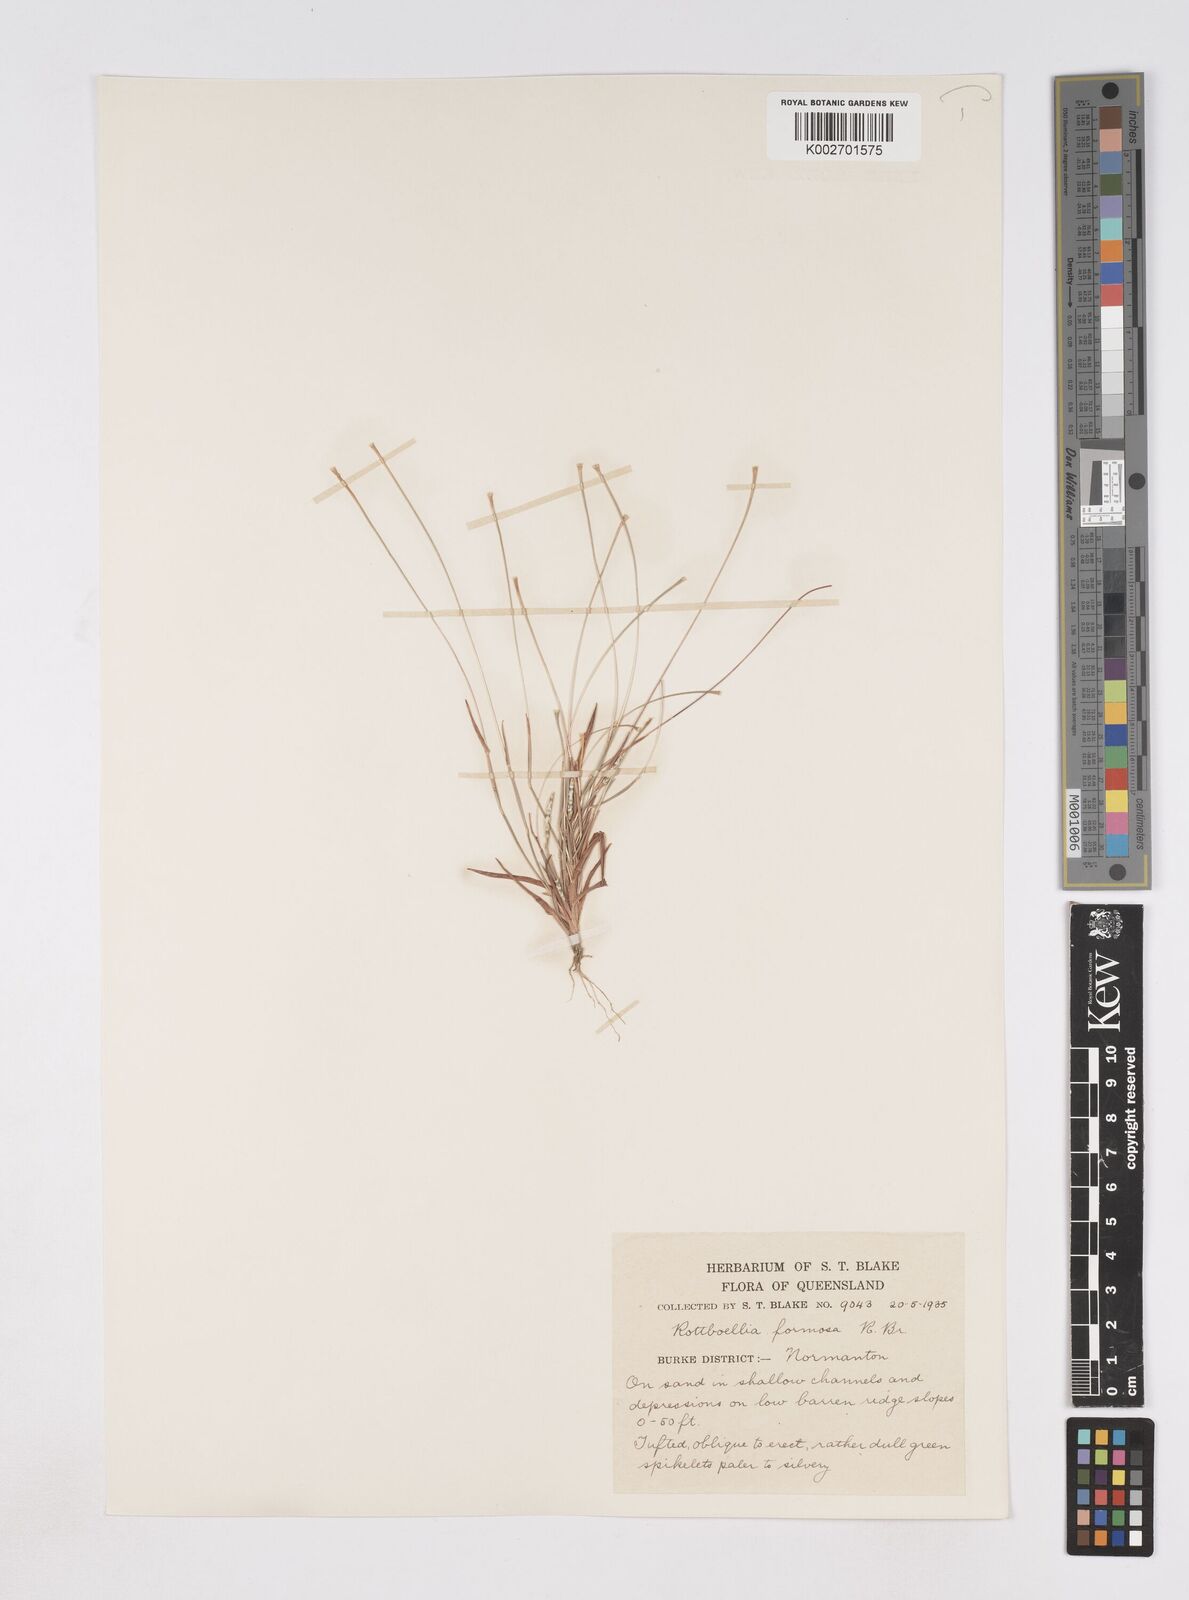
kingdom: Plantae
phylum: Tracheophyta
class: Liliopsida
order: Poales
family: Poaceae
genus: Heteropholis
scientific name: Heteropholis
